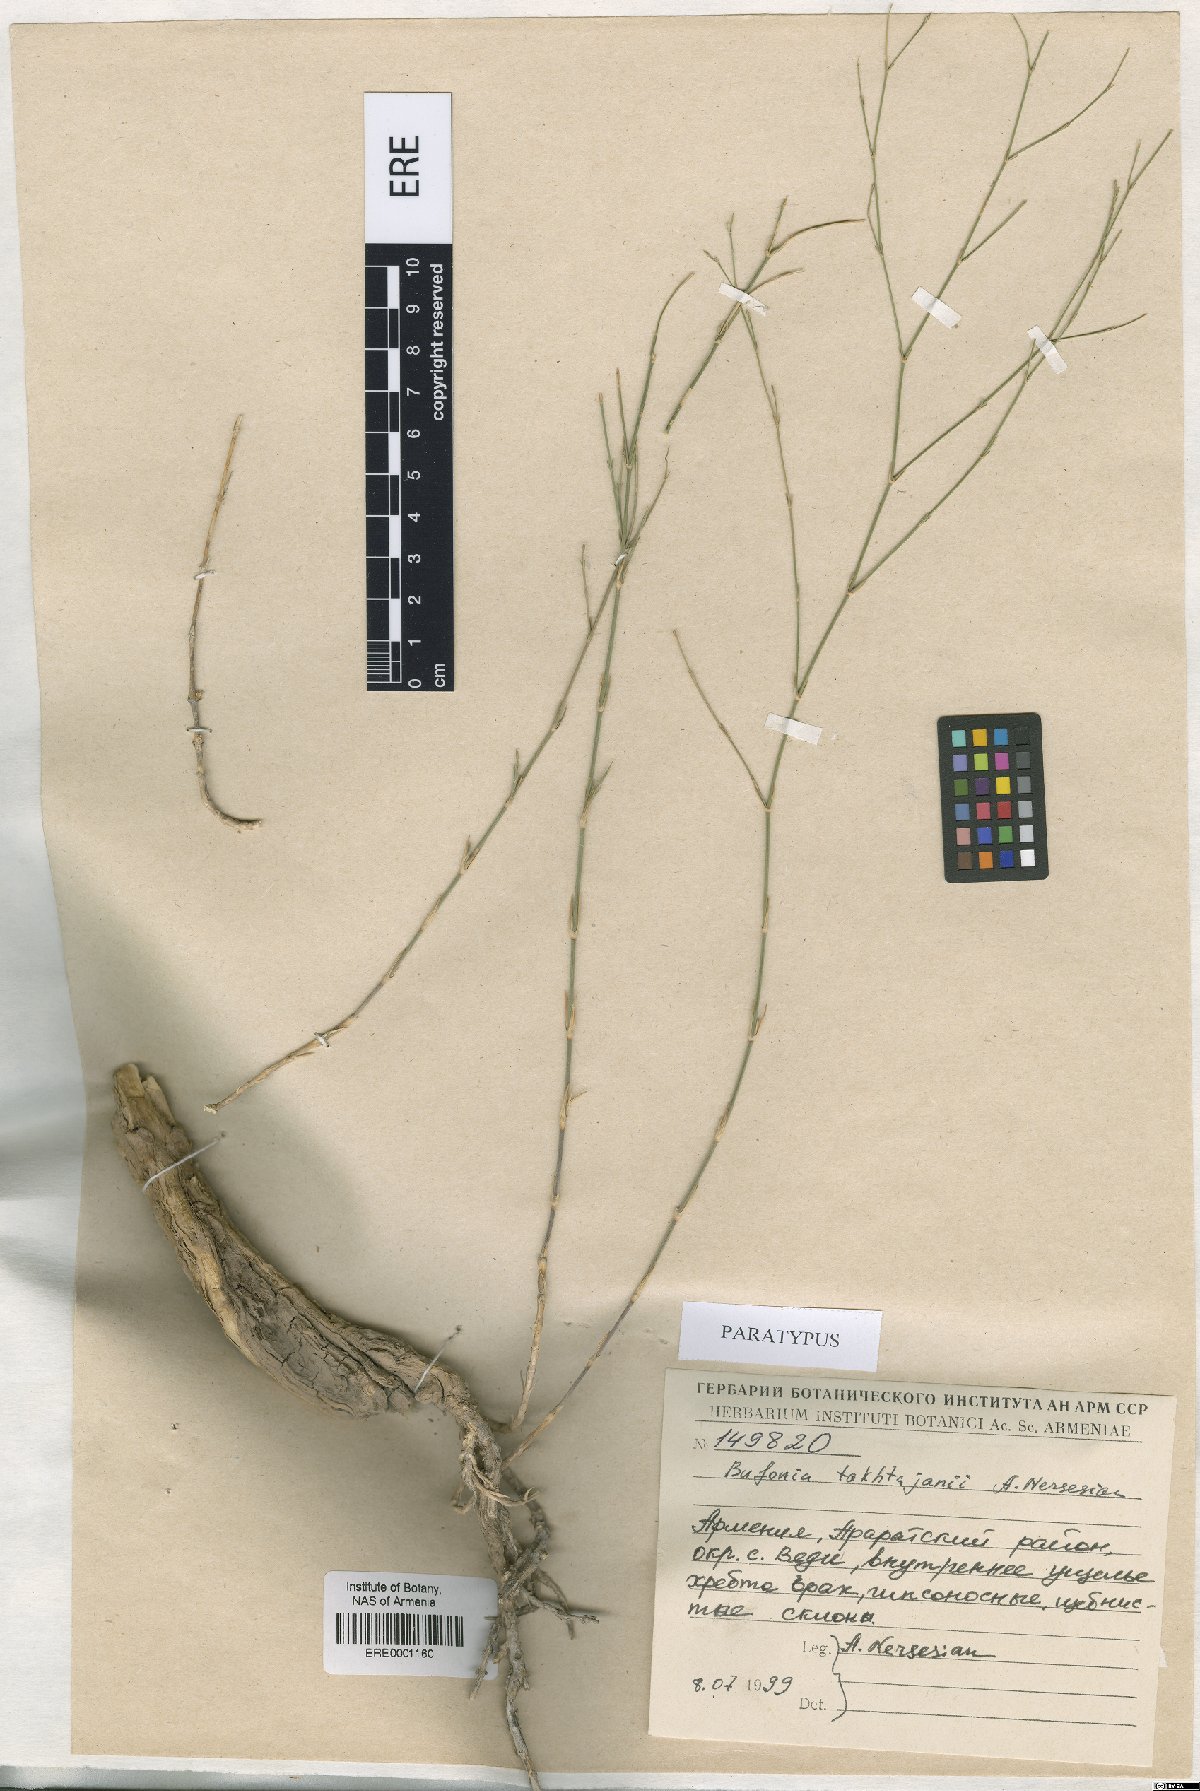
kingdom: Plantae
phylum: Tracheophyta
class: Magnoliopsida
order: Caryophyllales
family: Caryophyllaceae
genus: Bufonia
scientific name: Bufonia takhtajanii
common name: Takhtadjyan's bufonia
